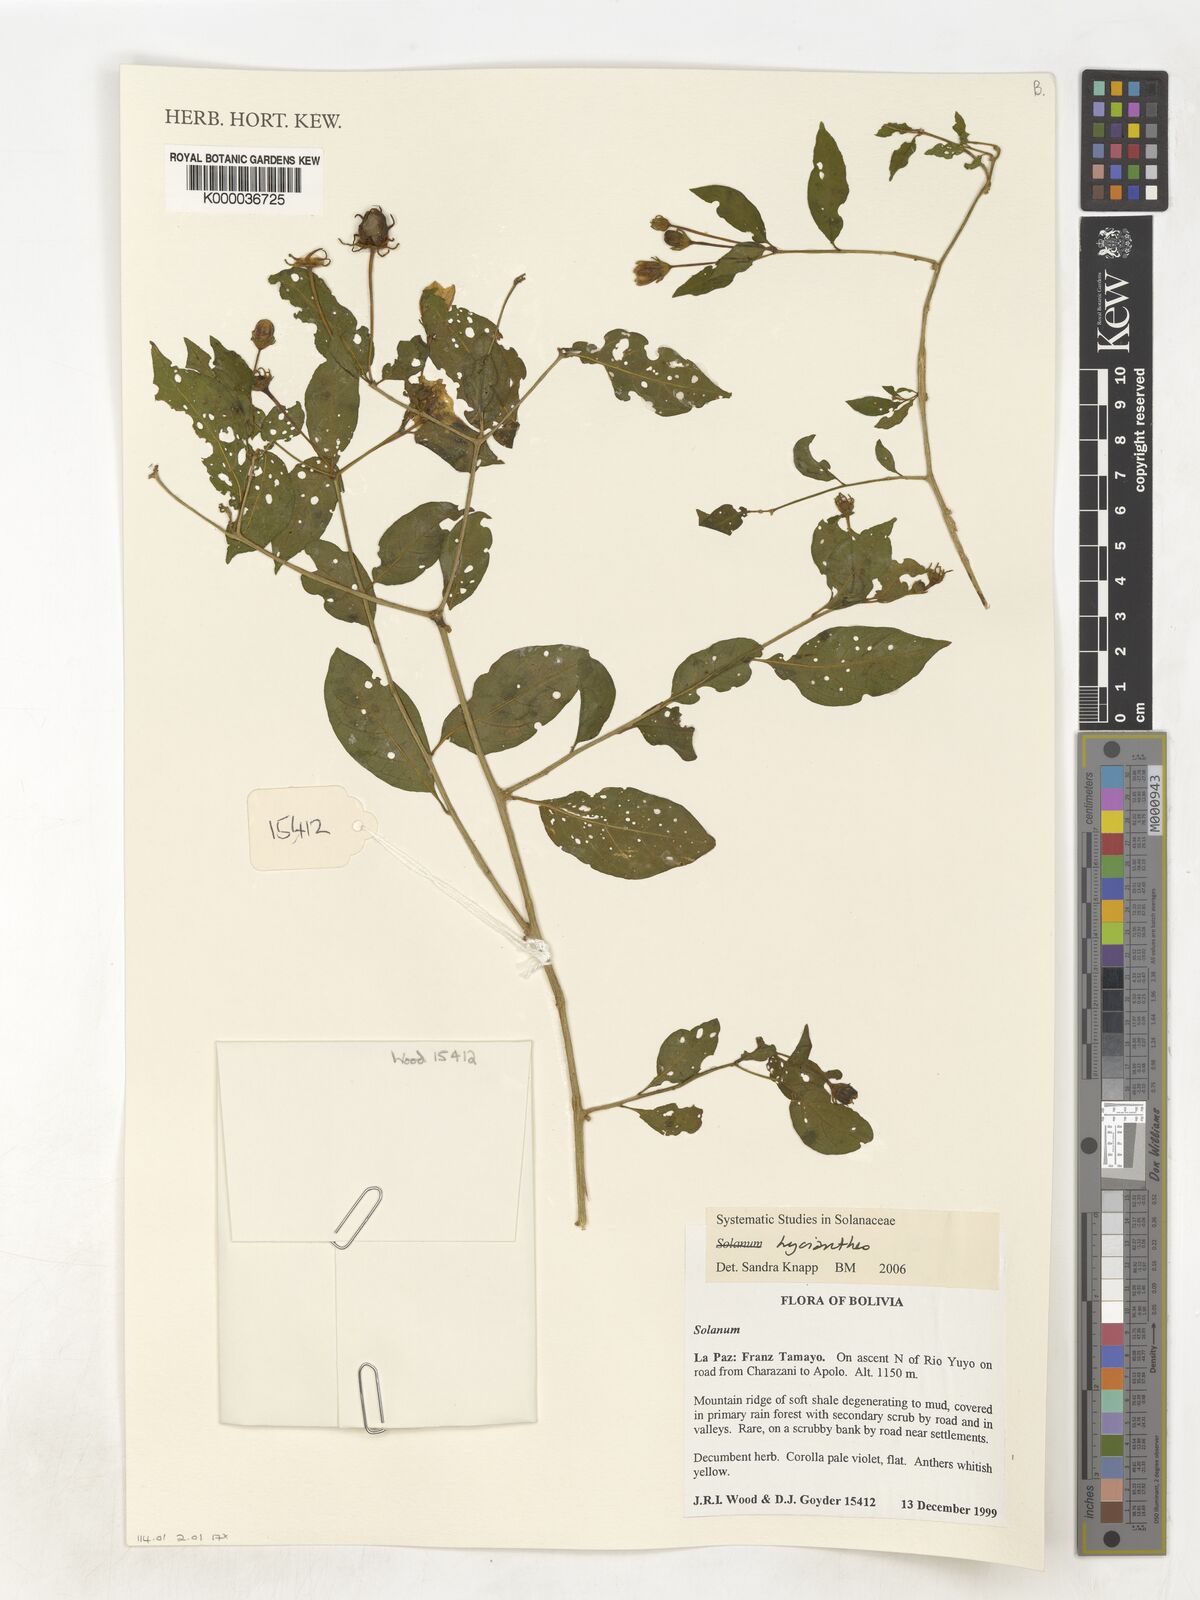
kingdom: Plantae
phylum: Tracheophyta
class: Magnoliopsida
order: Solanales
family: Solanaceae
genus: Lycianthes
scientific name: Lycianthes
